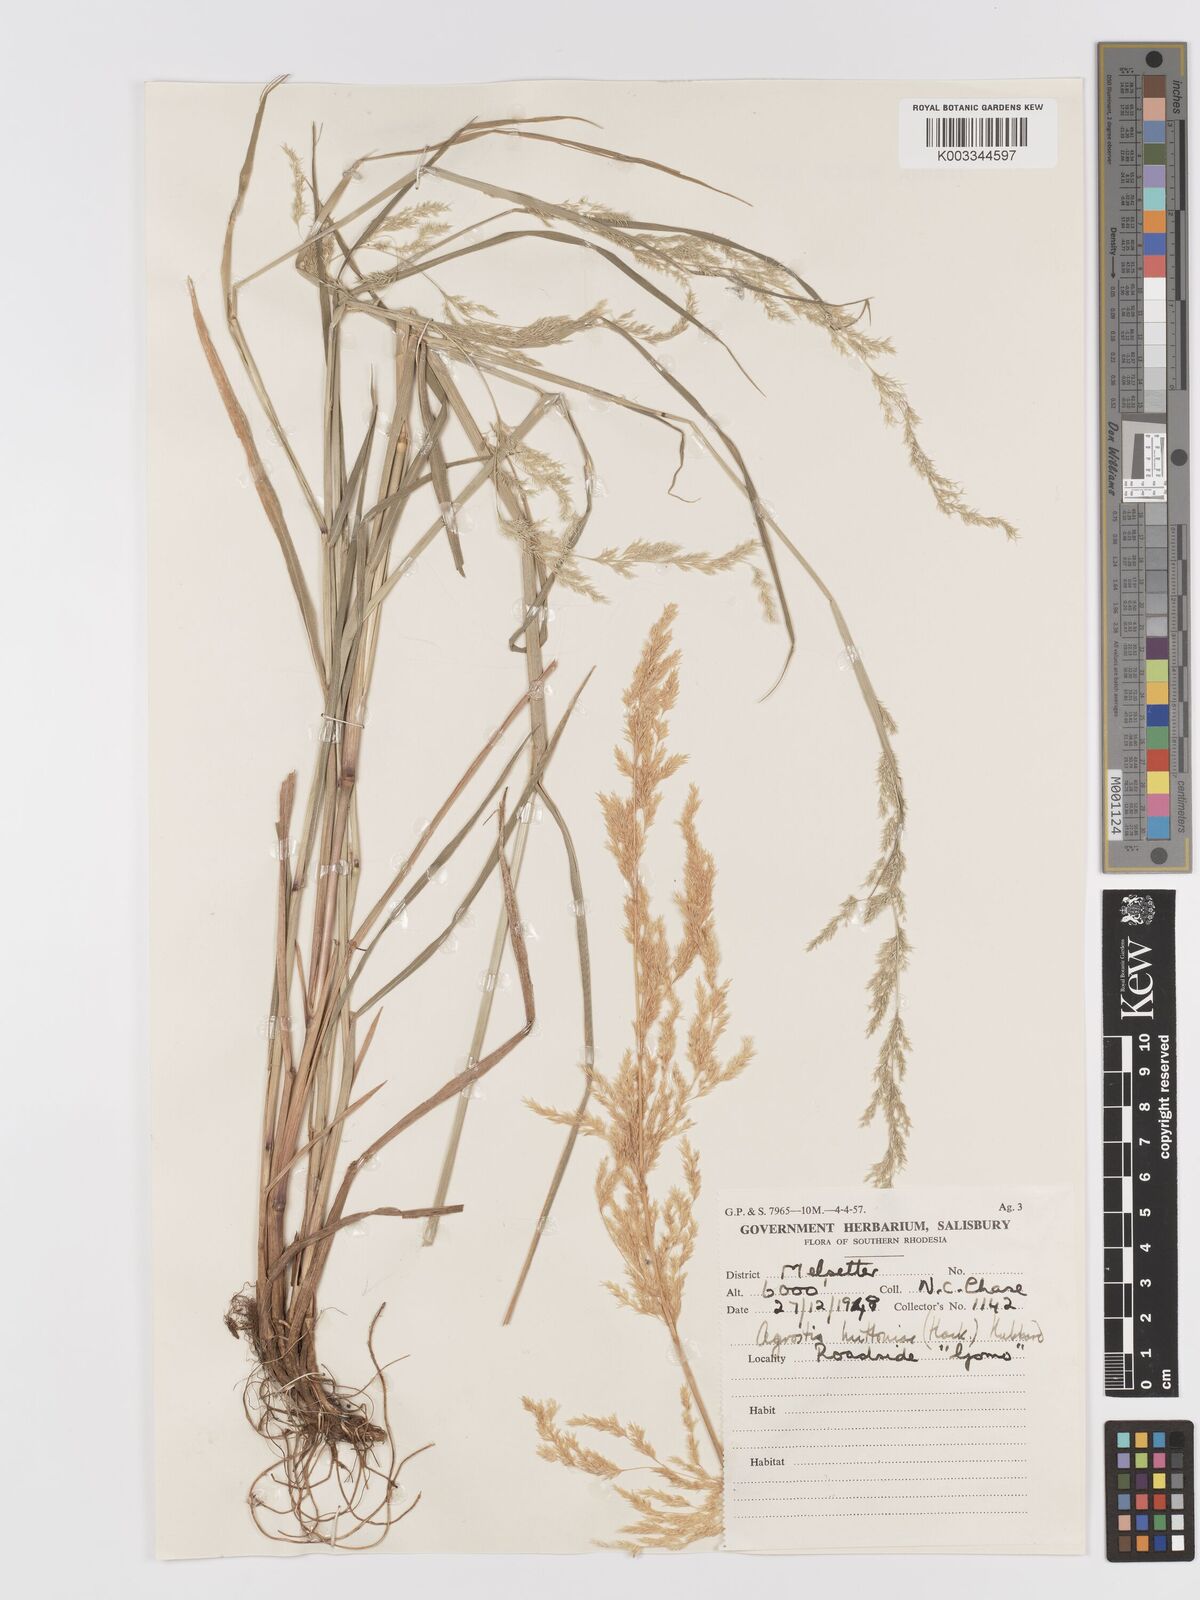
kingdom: Plantae
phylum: Tracheophyta
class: Liliopsida
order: Poales
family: Poaceae
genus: Lachnagrostis
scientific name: Lachnagrostis lachnantha
